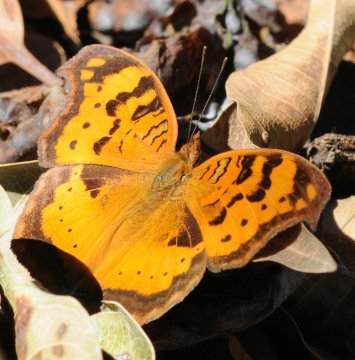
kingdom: Animalia
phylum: Arthropoda
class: Insecta
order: Lepidoptera
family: Nymphalidae
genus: Junonia
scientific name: Junonia antilope
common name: Darker Commodore
